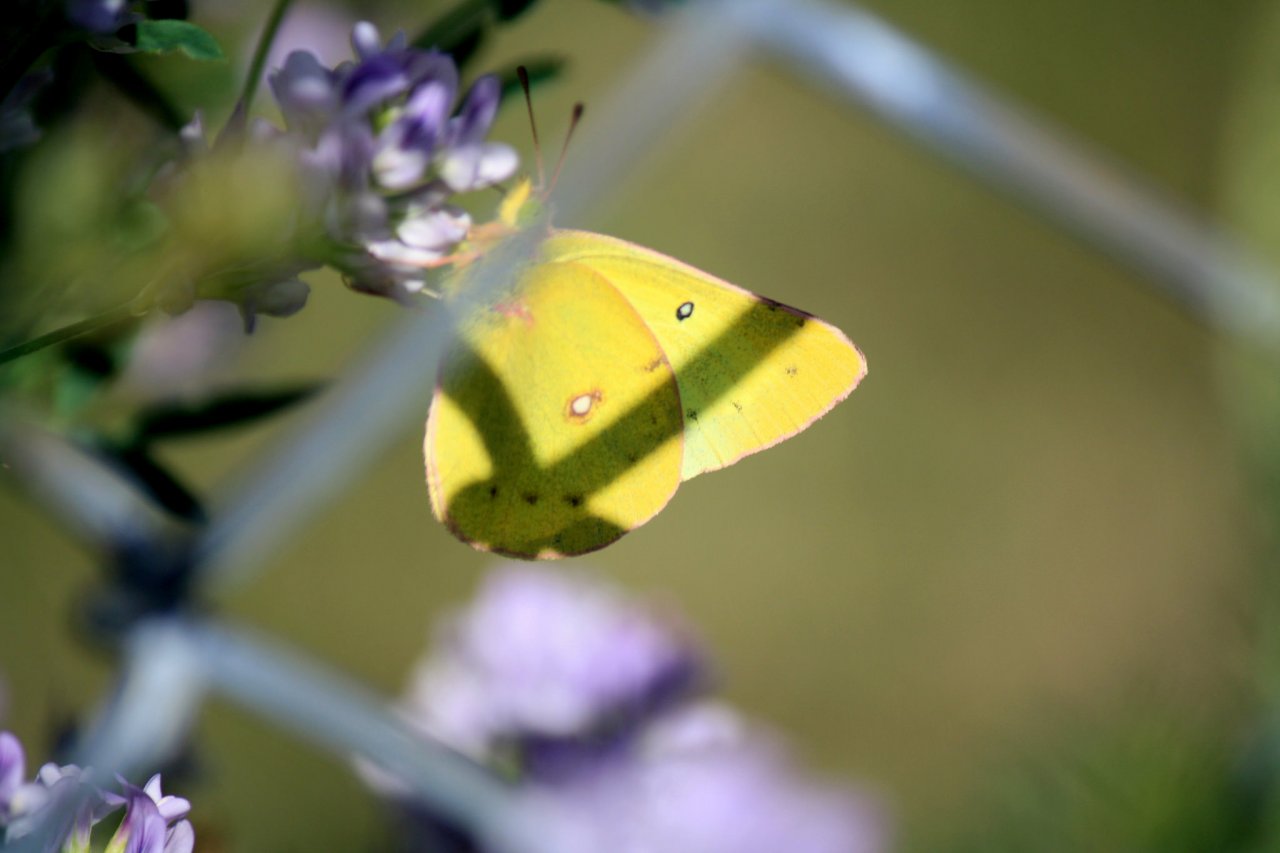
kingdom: Animalia
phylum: Arthropoda
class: Insecta
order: Lepidoptera
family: Pieridae
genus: Colias
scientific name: Colias eurytheme
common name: Orange Sulphur
